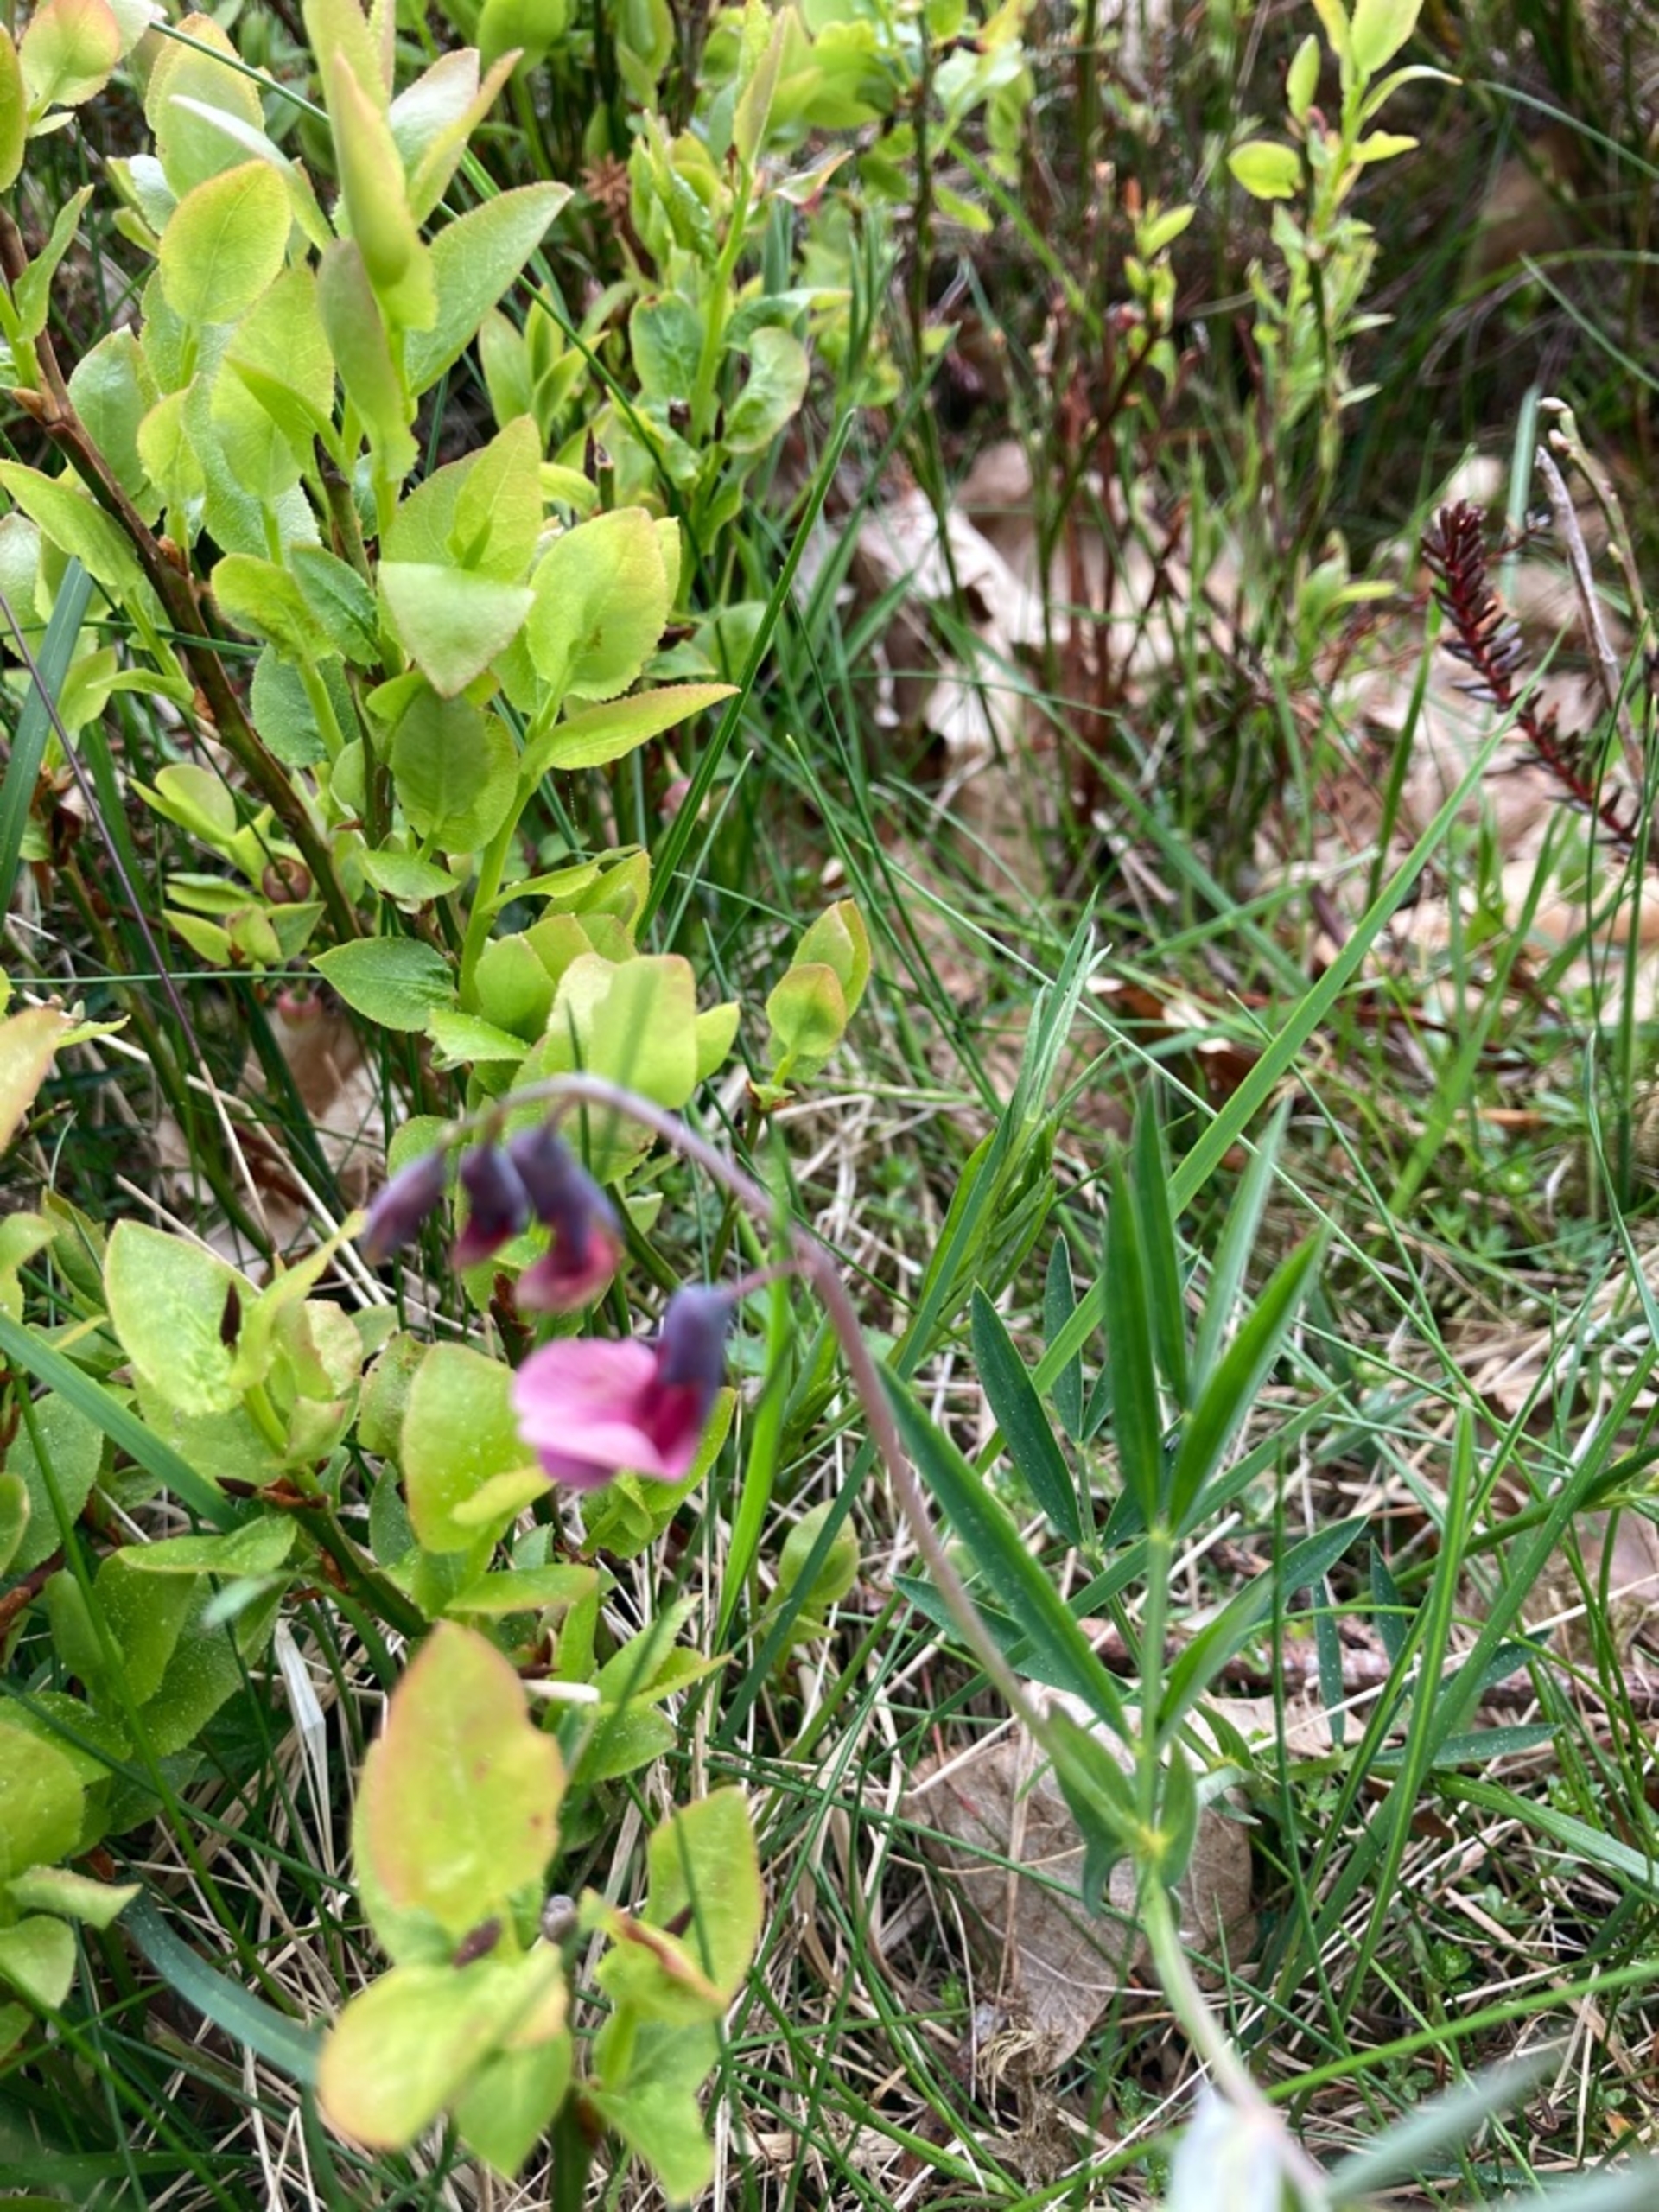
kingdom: Plantae
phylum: Tracheophyta
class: Magnoliopsida
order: Fabales
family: Fabaceae
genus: Lathyrus
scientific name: Lathyrus linifolius
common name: Krat-fladbælg
